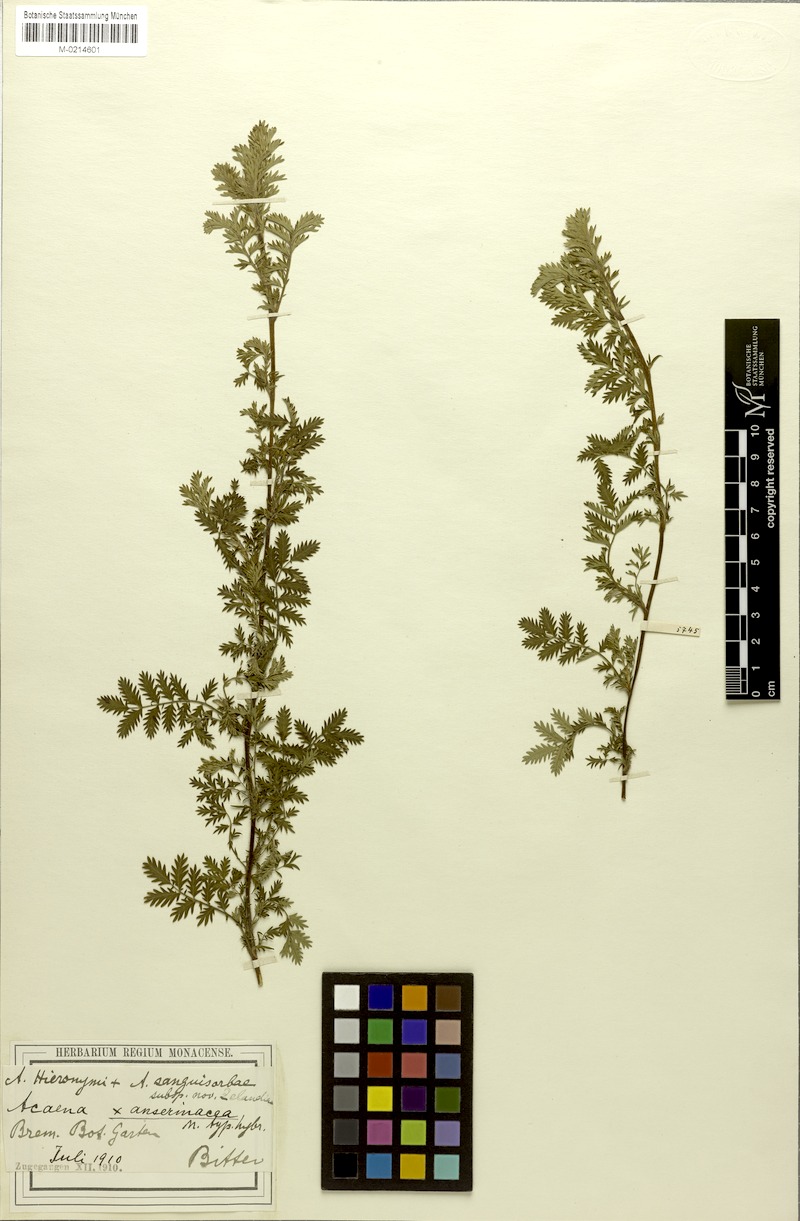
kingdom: Plantae
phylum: Tracheophyta
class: Magnoliopsida
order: Rosales
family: Rosaceae
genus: Acaena
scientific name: Acaena anserinacea
